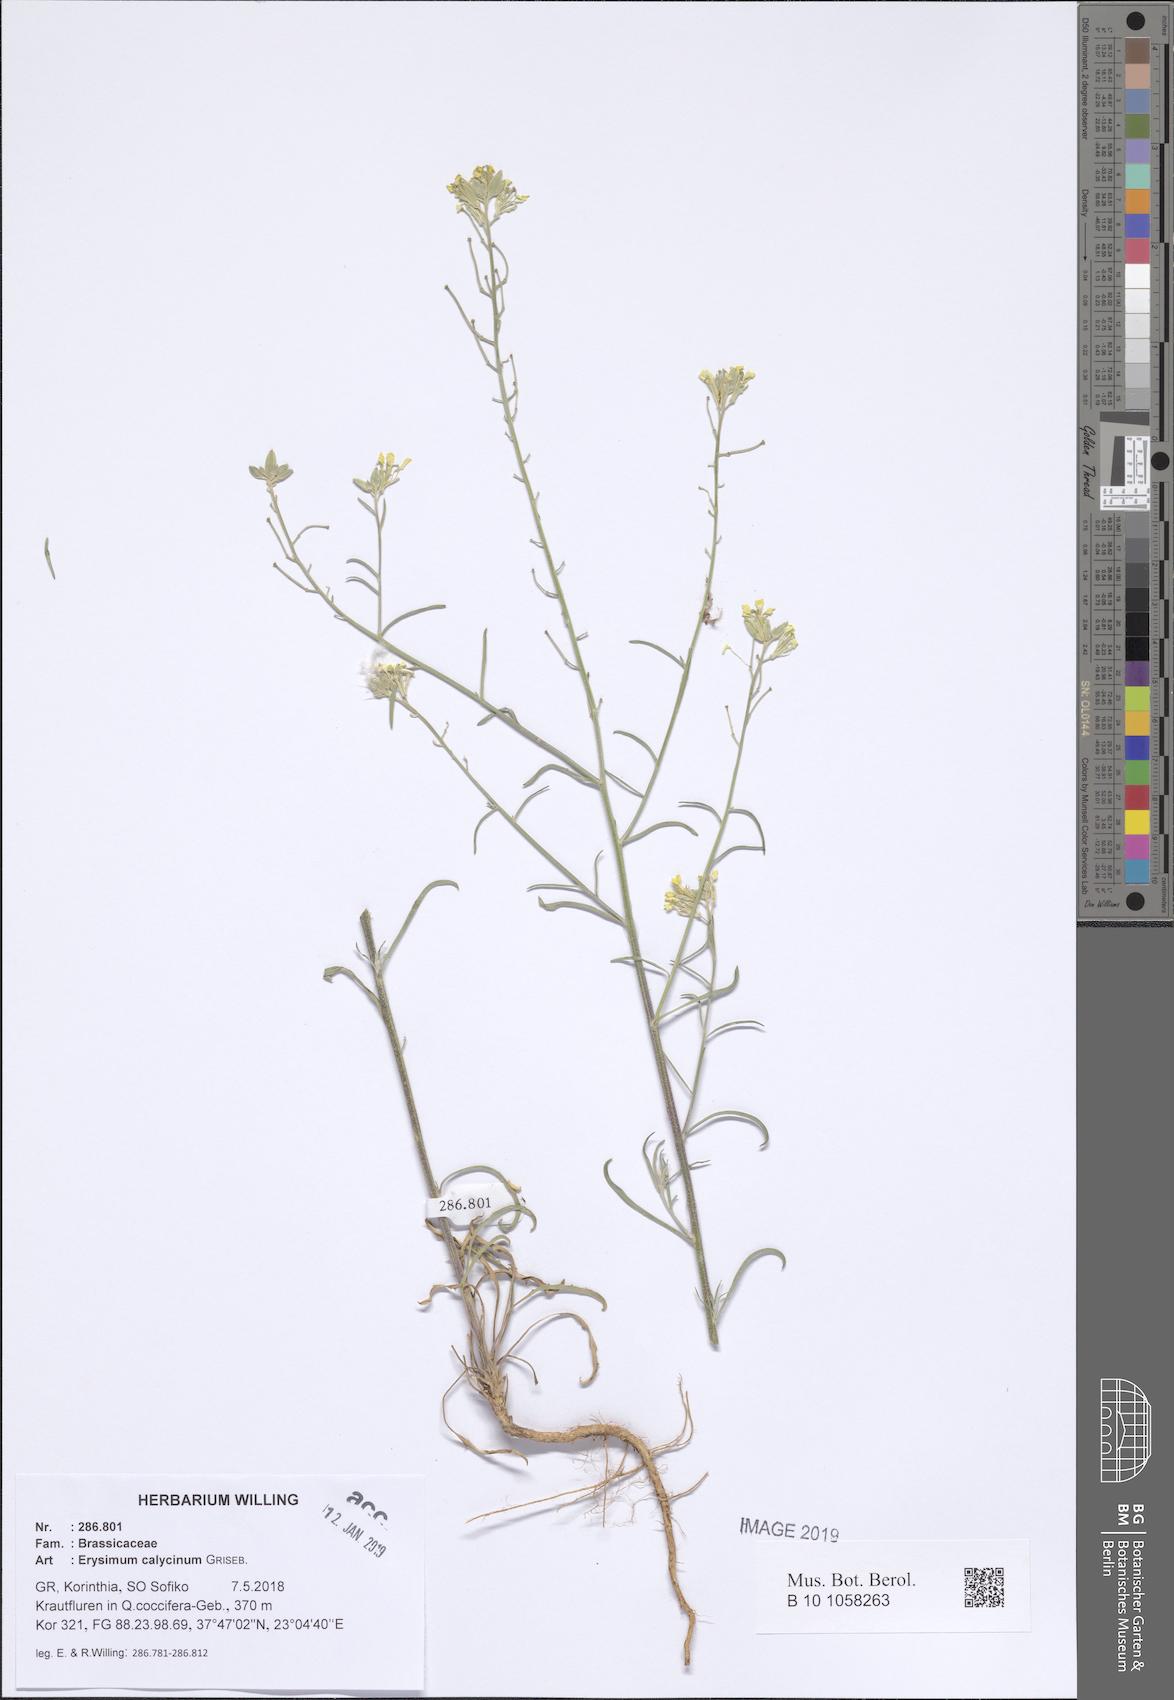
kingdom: Plantae
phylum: Tracheophyta
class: Magnoliopsida
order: Brassicales
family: Brassicaceae
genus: Erysimum
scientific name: Erysimum calycinum
